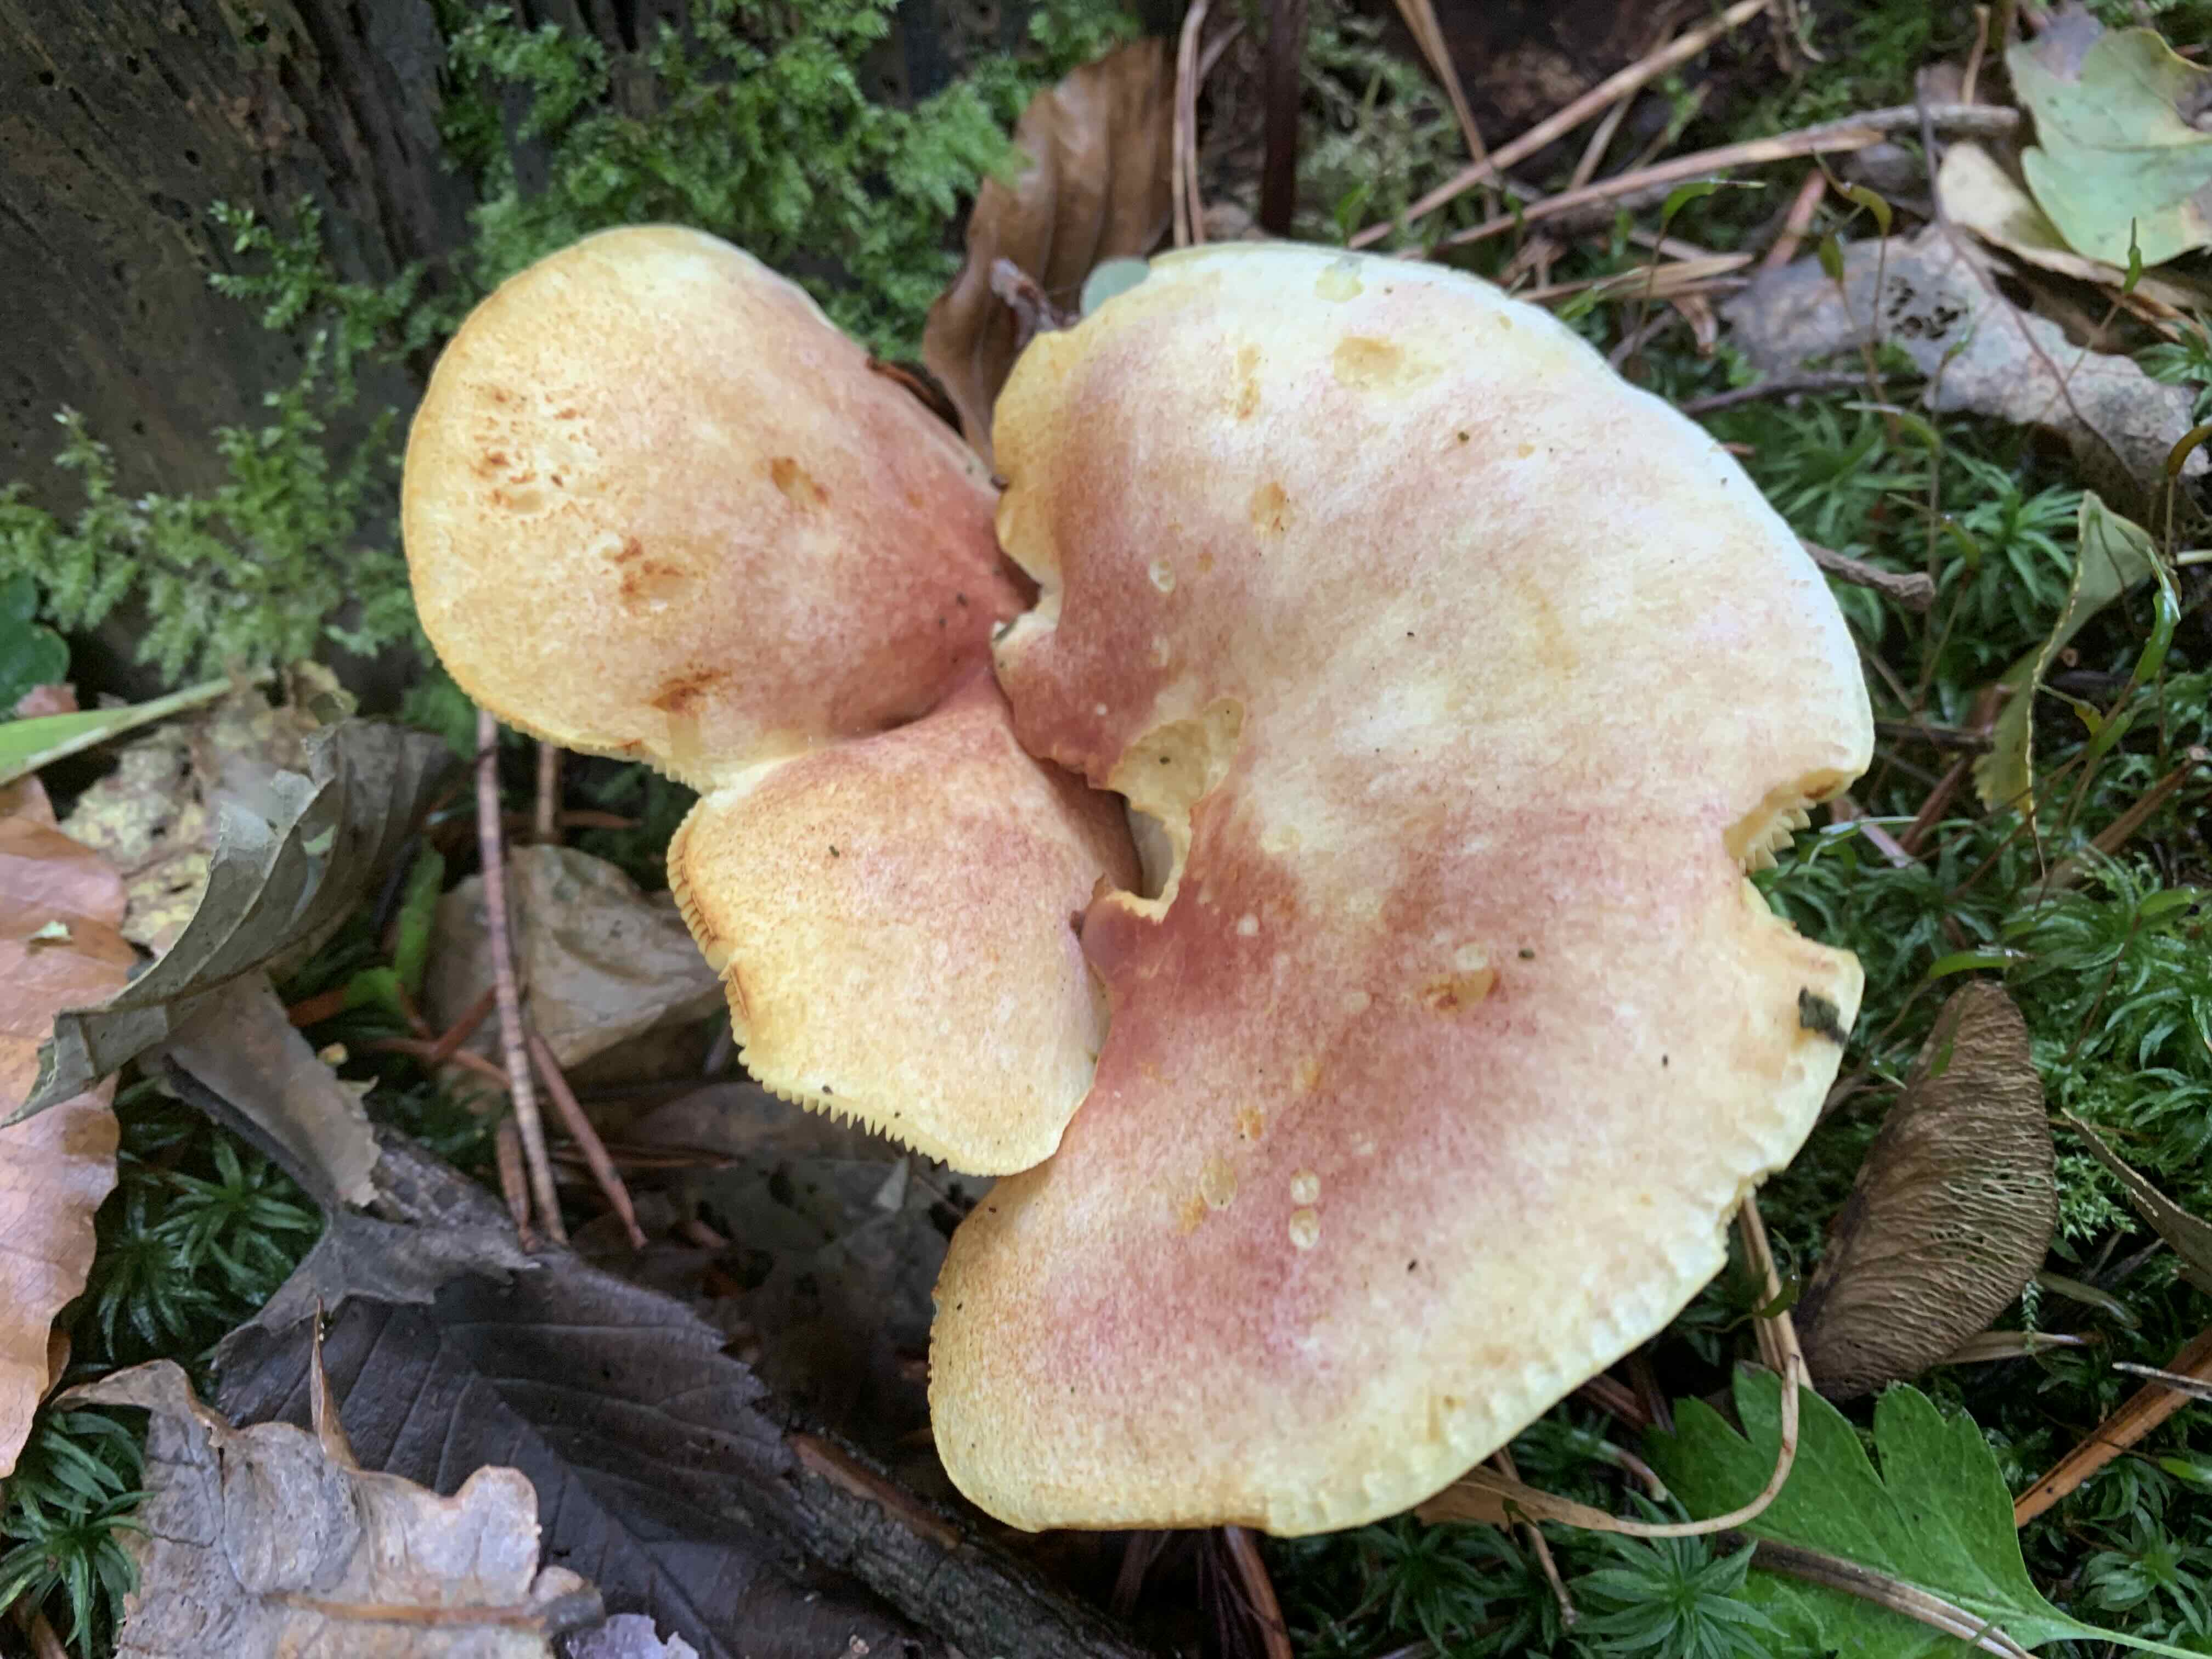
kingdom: Fungi
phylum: Basidiomycota
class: Agaricomycetes
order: Agaricales
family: Tricholomataceae
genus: Tricholomopsis
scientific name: Tricholomopsis rutilans
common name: purpur-væbnerhat
